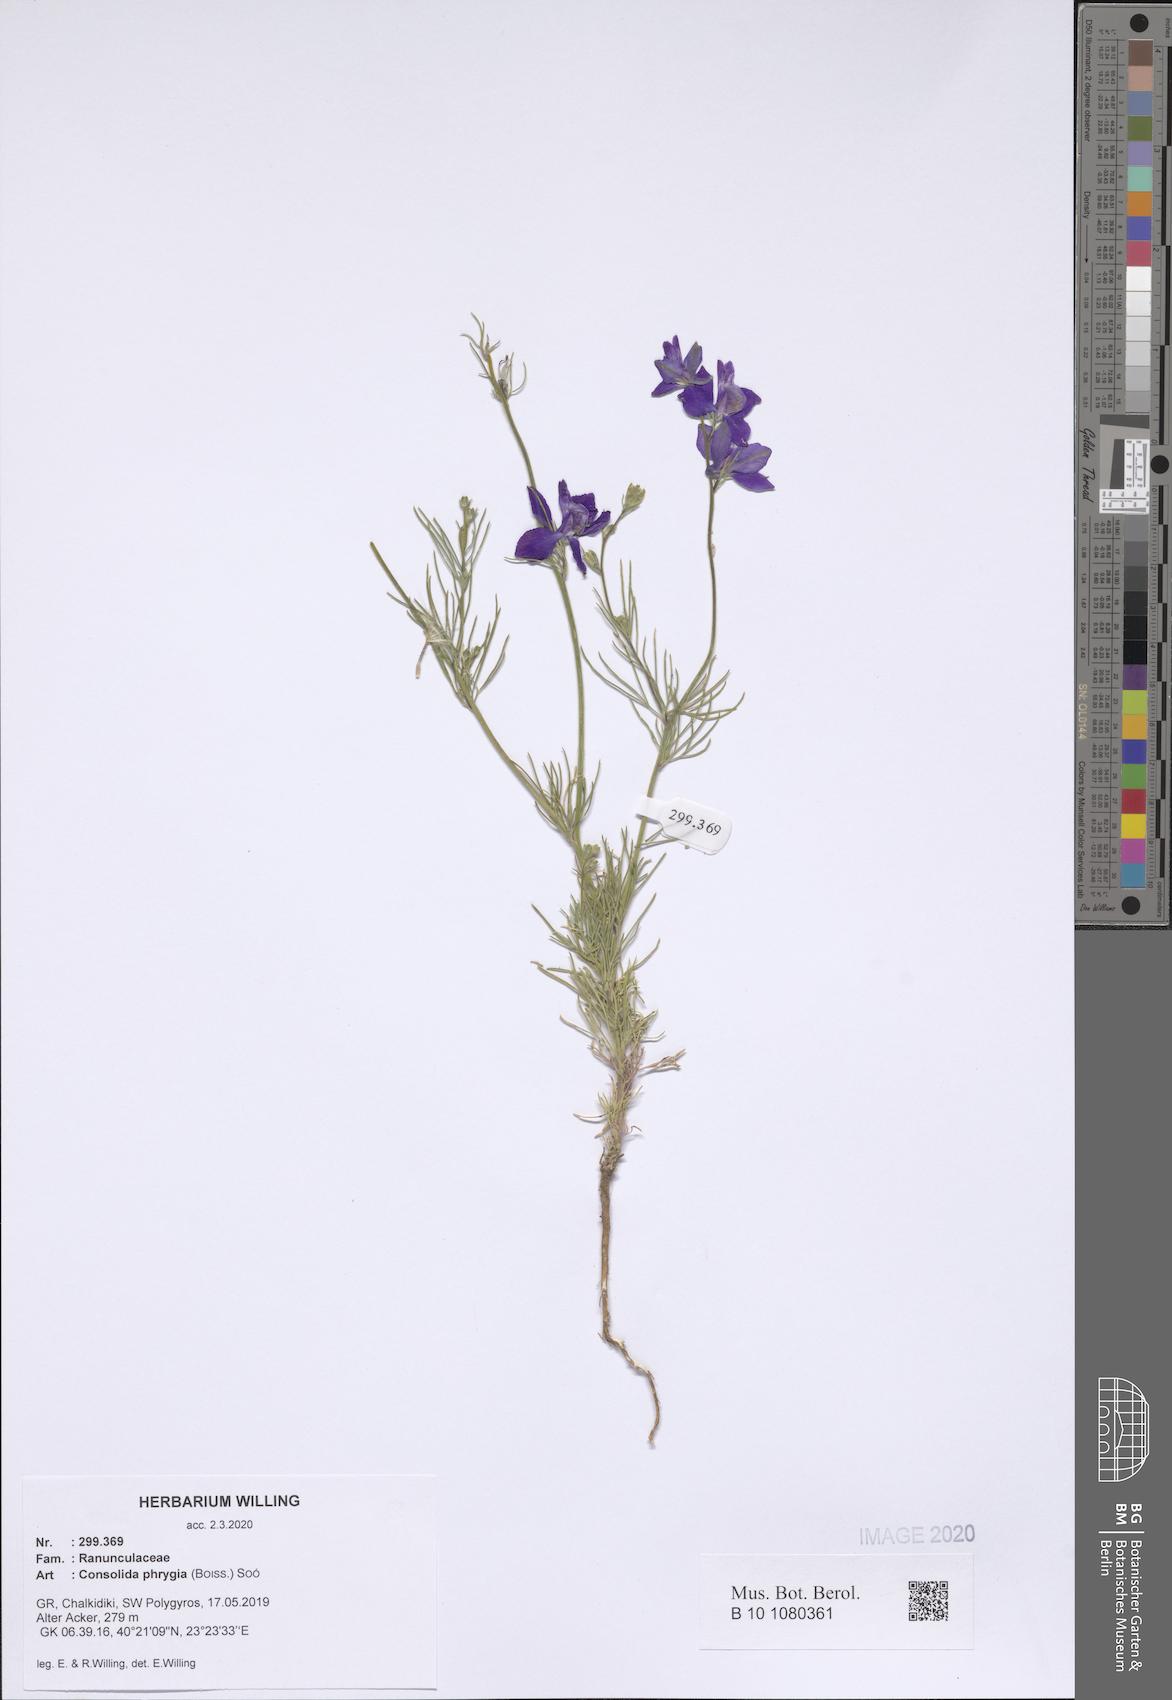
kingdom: Plantae
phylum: Tracheophyta
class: Magnoliopsida
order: Ranunculales
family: Ranunculaceae
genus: Delphinium
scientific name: Delphinium phrygium
